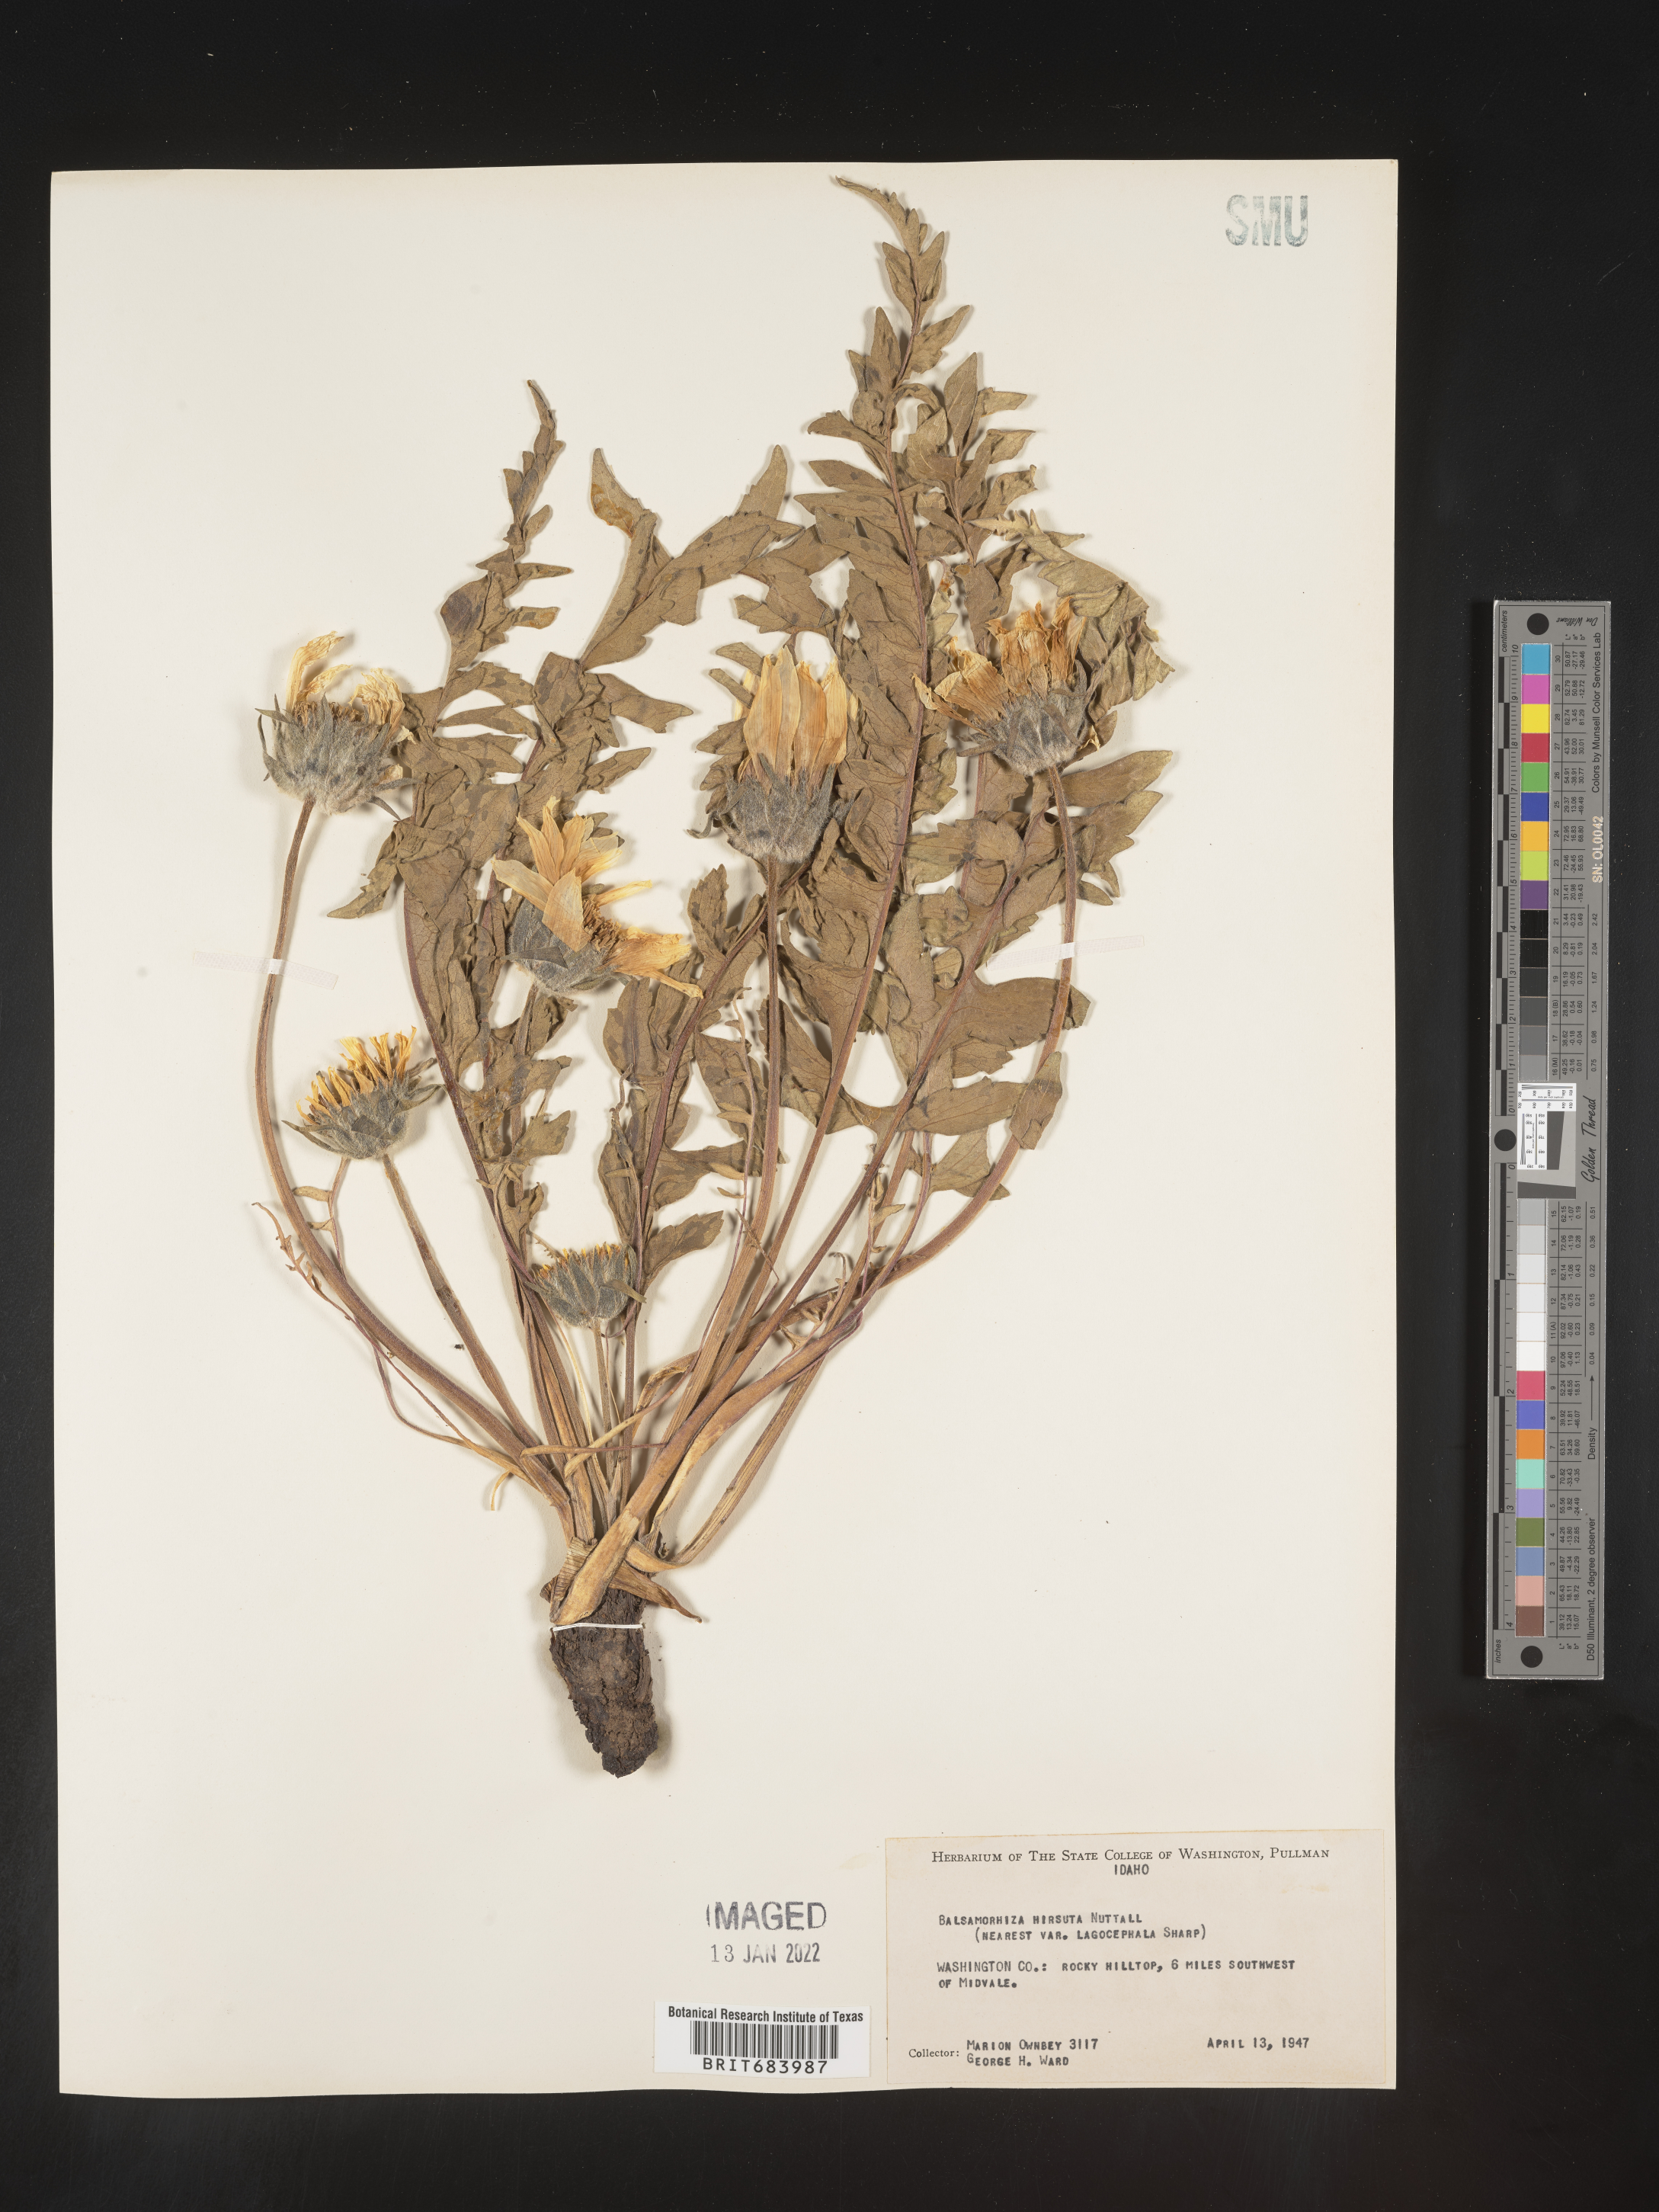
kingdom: Plantae
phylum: Tracheophyta
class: Magnoliopsida
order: Asterales
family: Asteraceae
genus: Balsamorhiza
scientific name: Balsamorhiza hookeri
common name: Hooker's balsamroot
